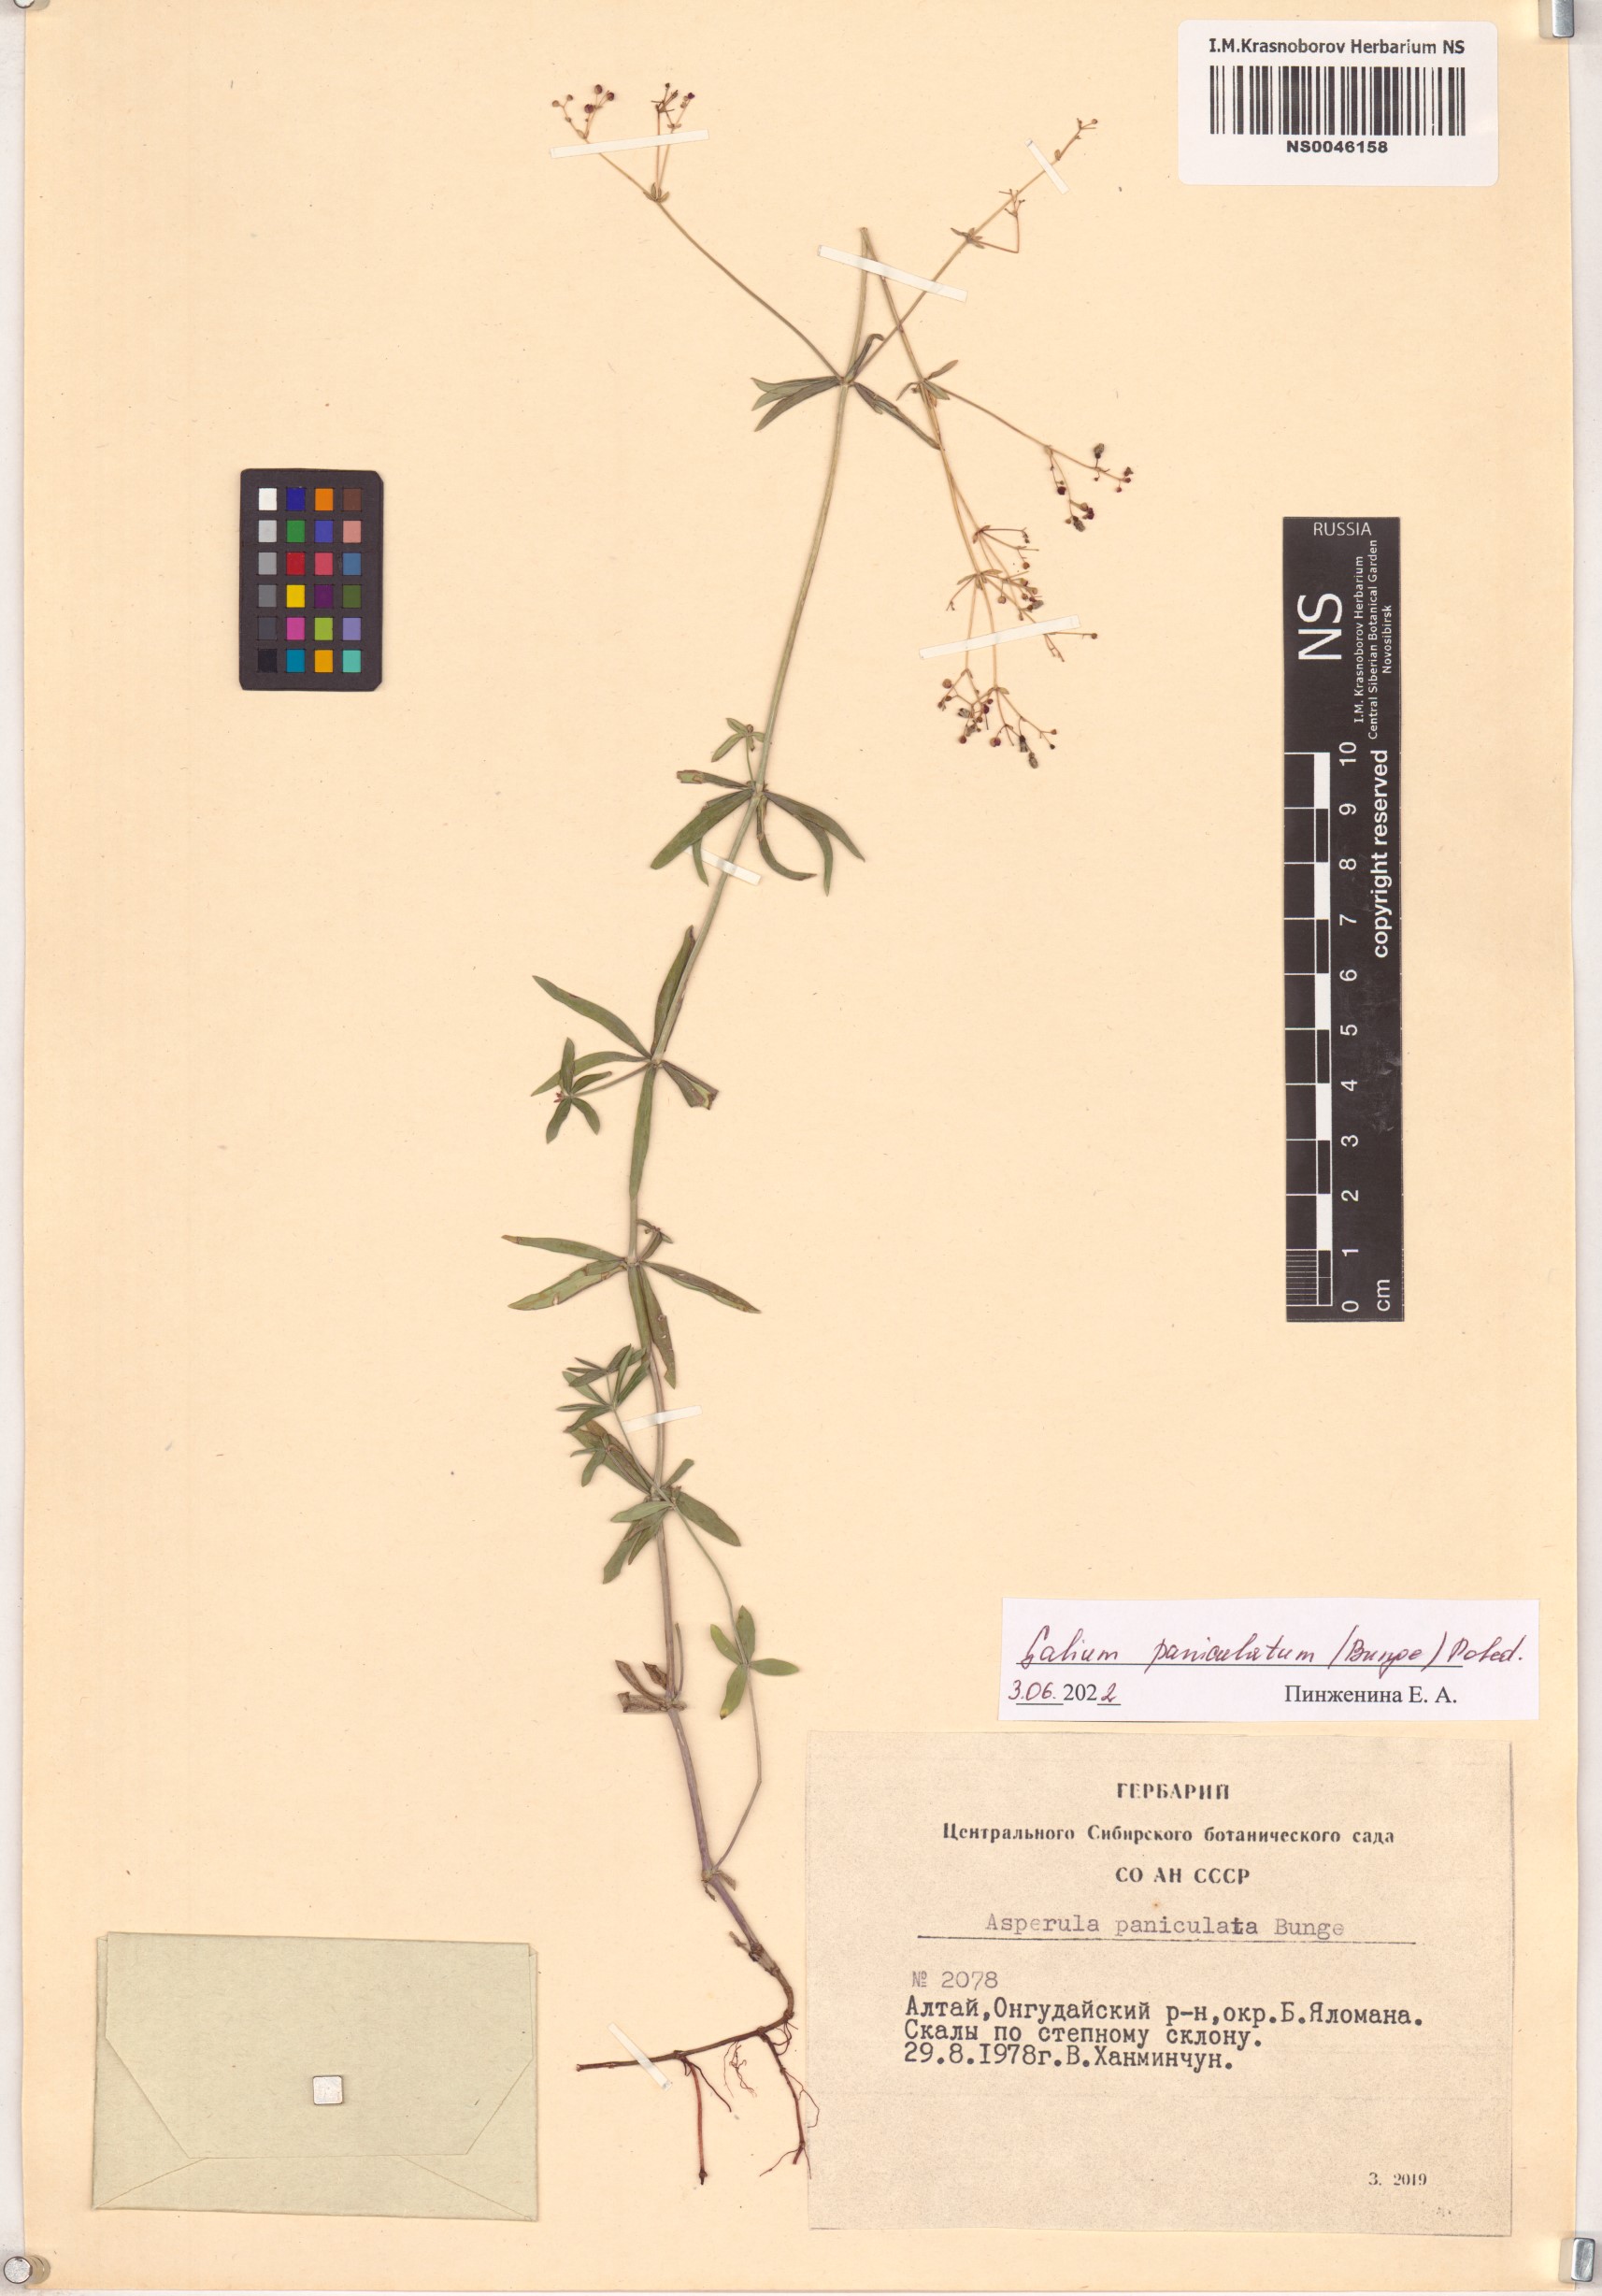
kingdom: Plantae
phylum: Tracheophyta
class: Magnoliopsida
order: Gentianales
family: Rubiaceae
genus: Galium
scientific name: Galium paniculatum
